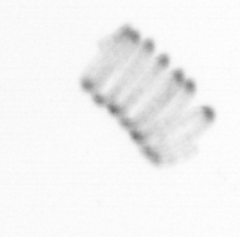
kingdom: Chromista
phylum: Ochrophyta
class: Bacillariophyceae
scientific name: Bacillariophyceae
